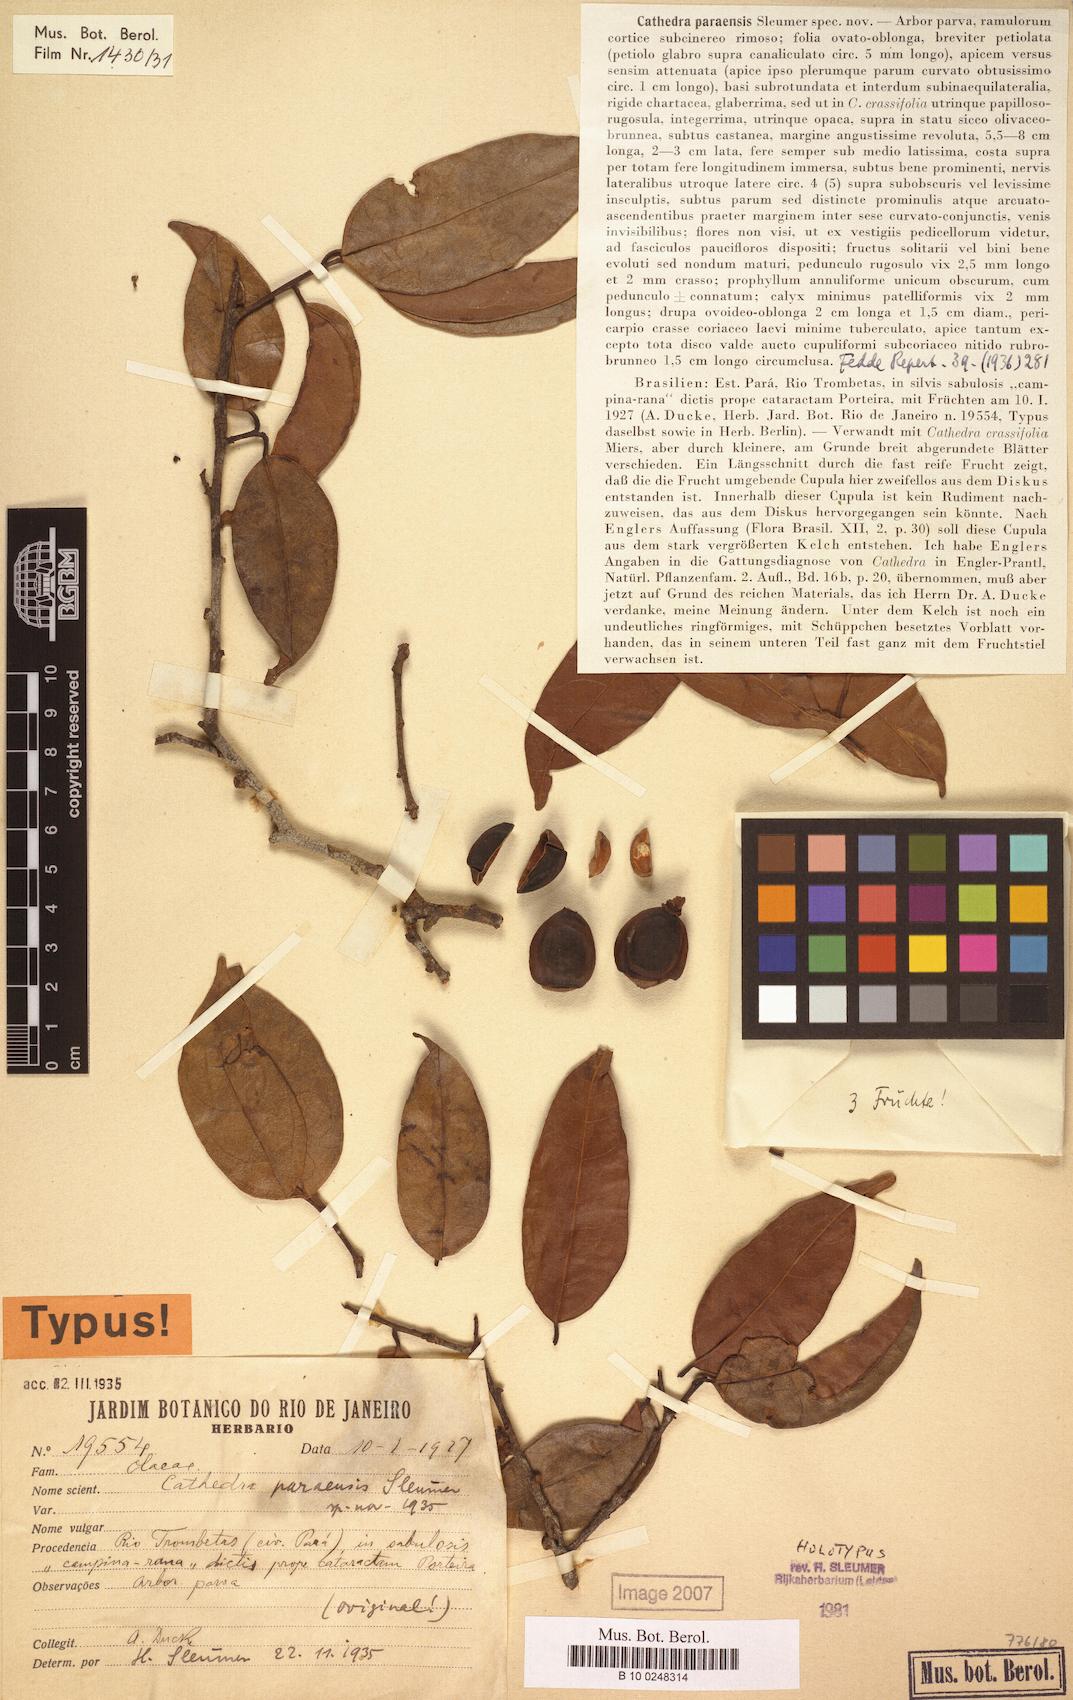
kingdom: Plantae
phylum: Tracheophyta
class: Magnoliopsida
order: Santalales
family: Aptandraceae
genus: Cathedra
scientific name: Cathedra paraensis
